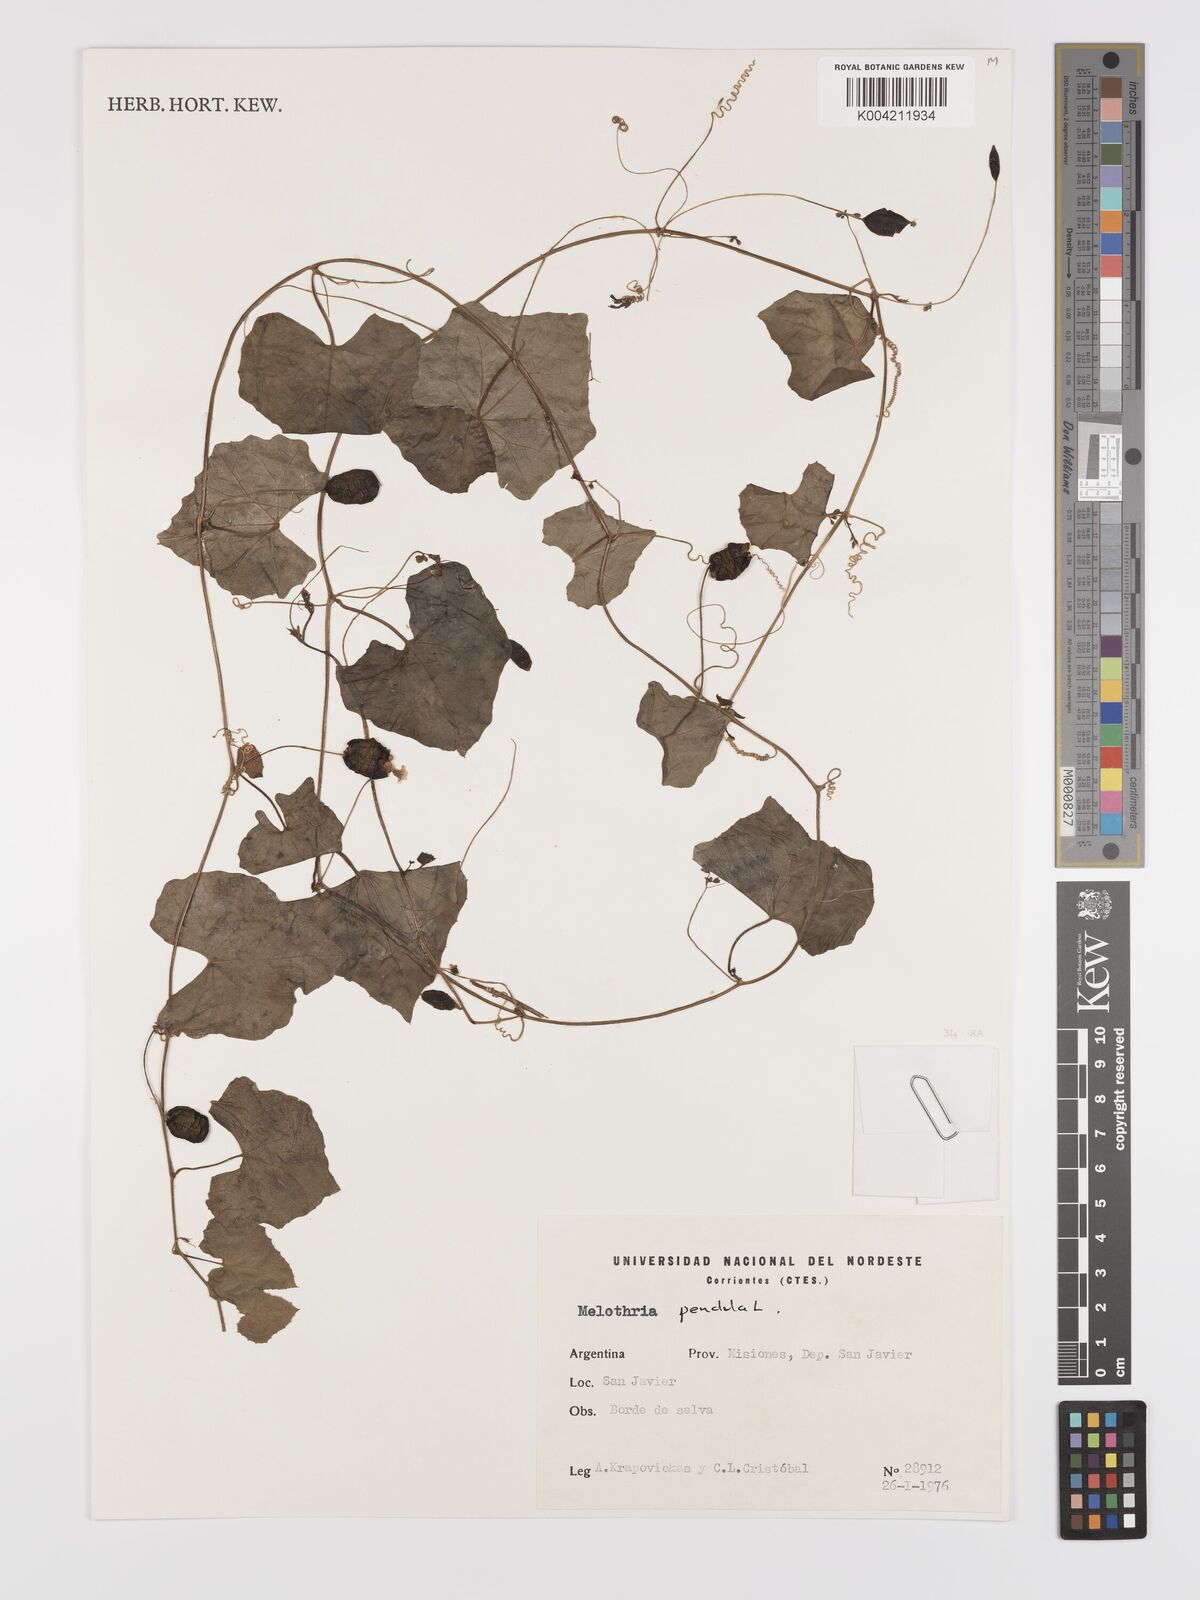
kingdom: Plantae
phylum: Tracheophyta
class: Magnoliopsida
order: Cucurbitales
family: Cucurbitaceae
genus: Melothria
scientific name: Melothria pendula
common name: Creeping-cucumber
